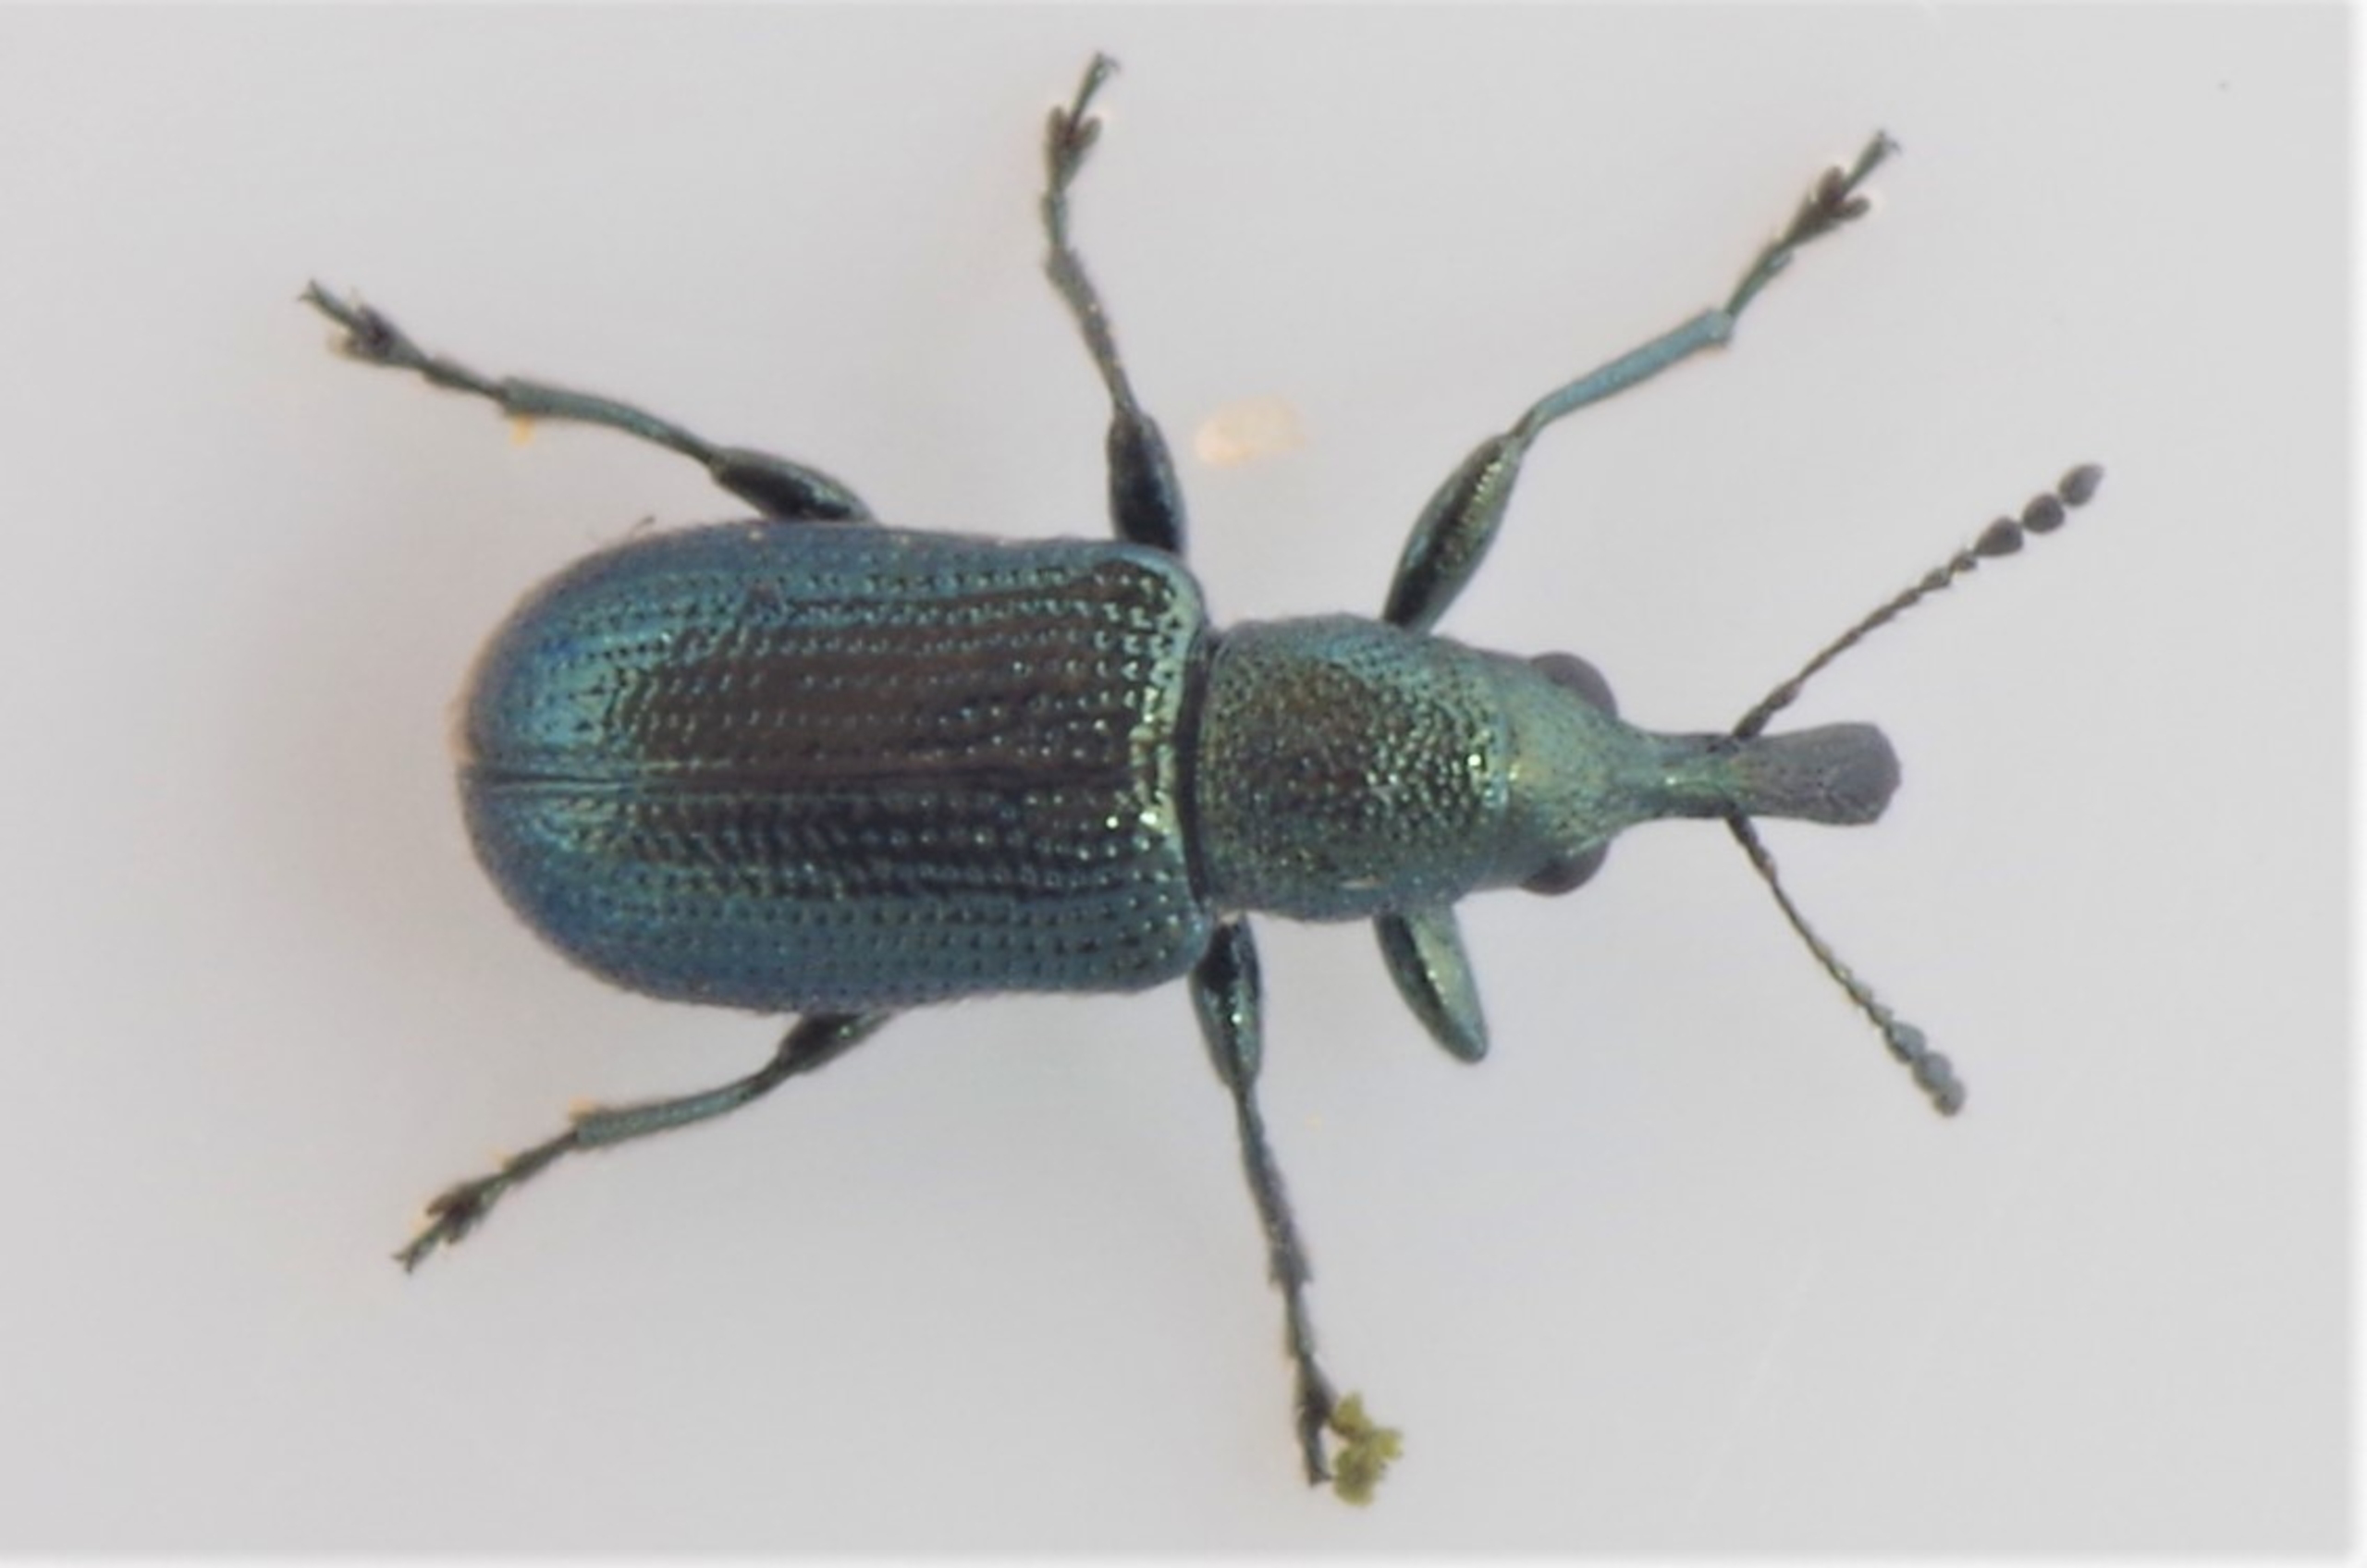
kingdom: Animalia
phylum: Arthropoda
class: Insecta
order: Coleoptera
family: Attelabidae
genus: Temnocerus
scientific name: Temnocerus nanus
